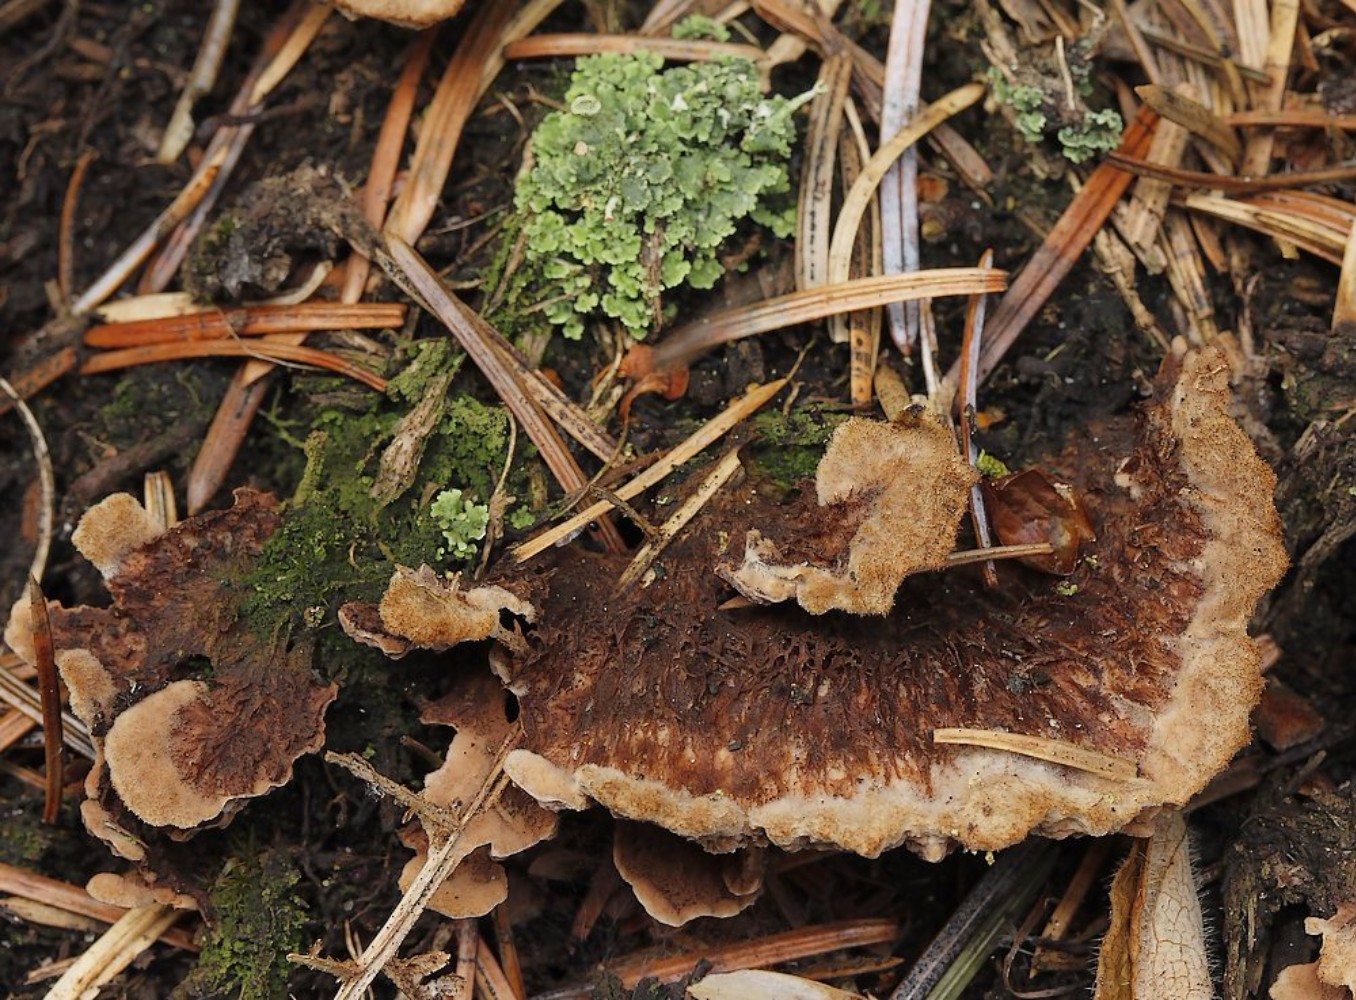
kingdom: Fungi
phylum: Basidiomycota
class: Agaricomycetes
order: Thelephorales
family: Thelephoraceae
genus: Thelephora
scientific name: Thelephora terrestris
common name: fliget frynsesvamp
